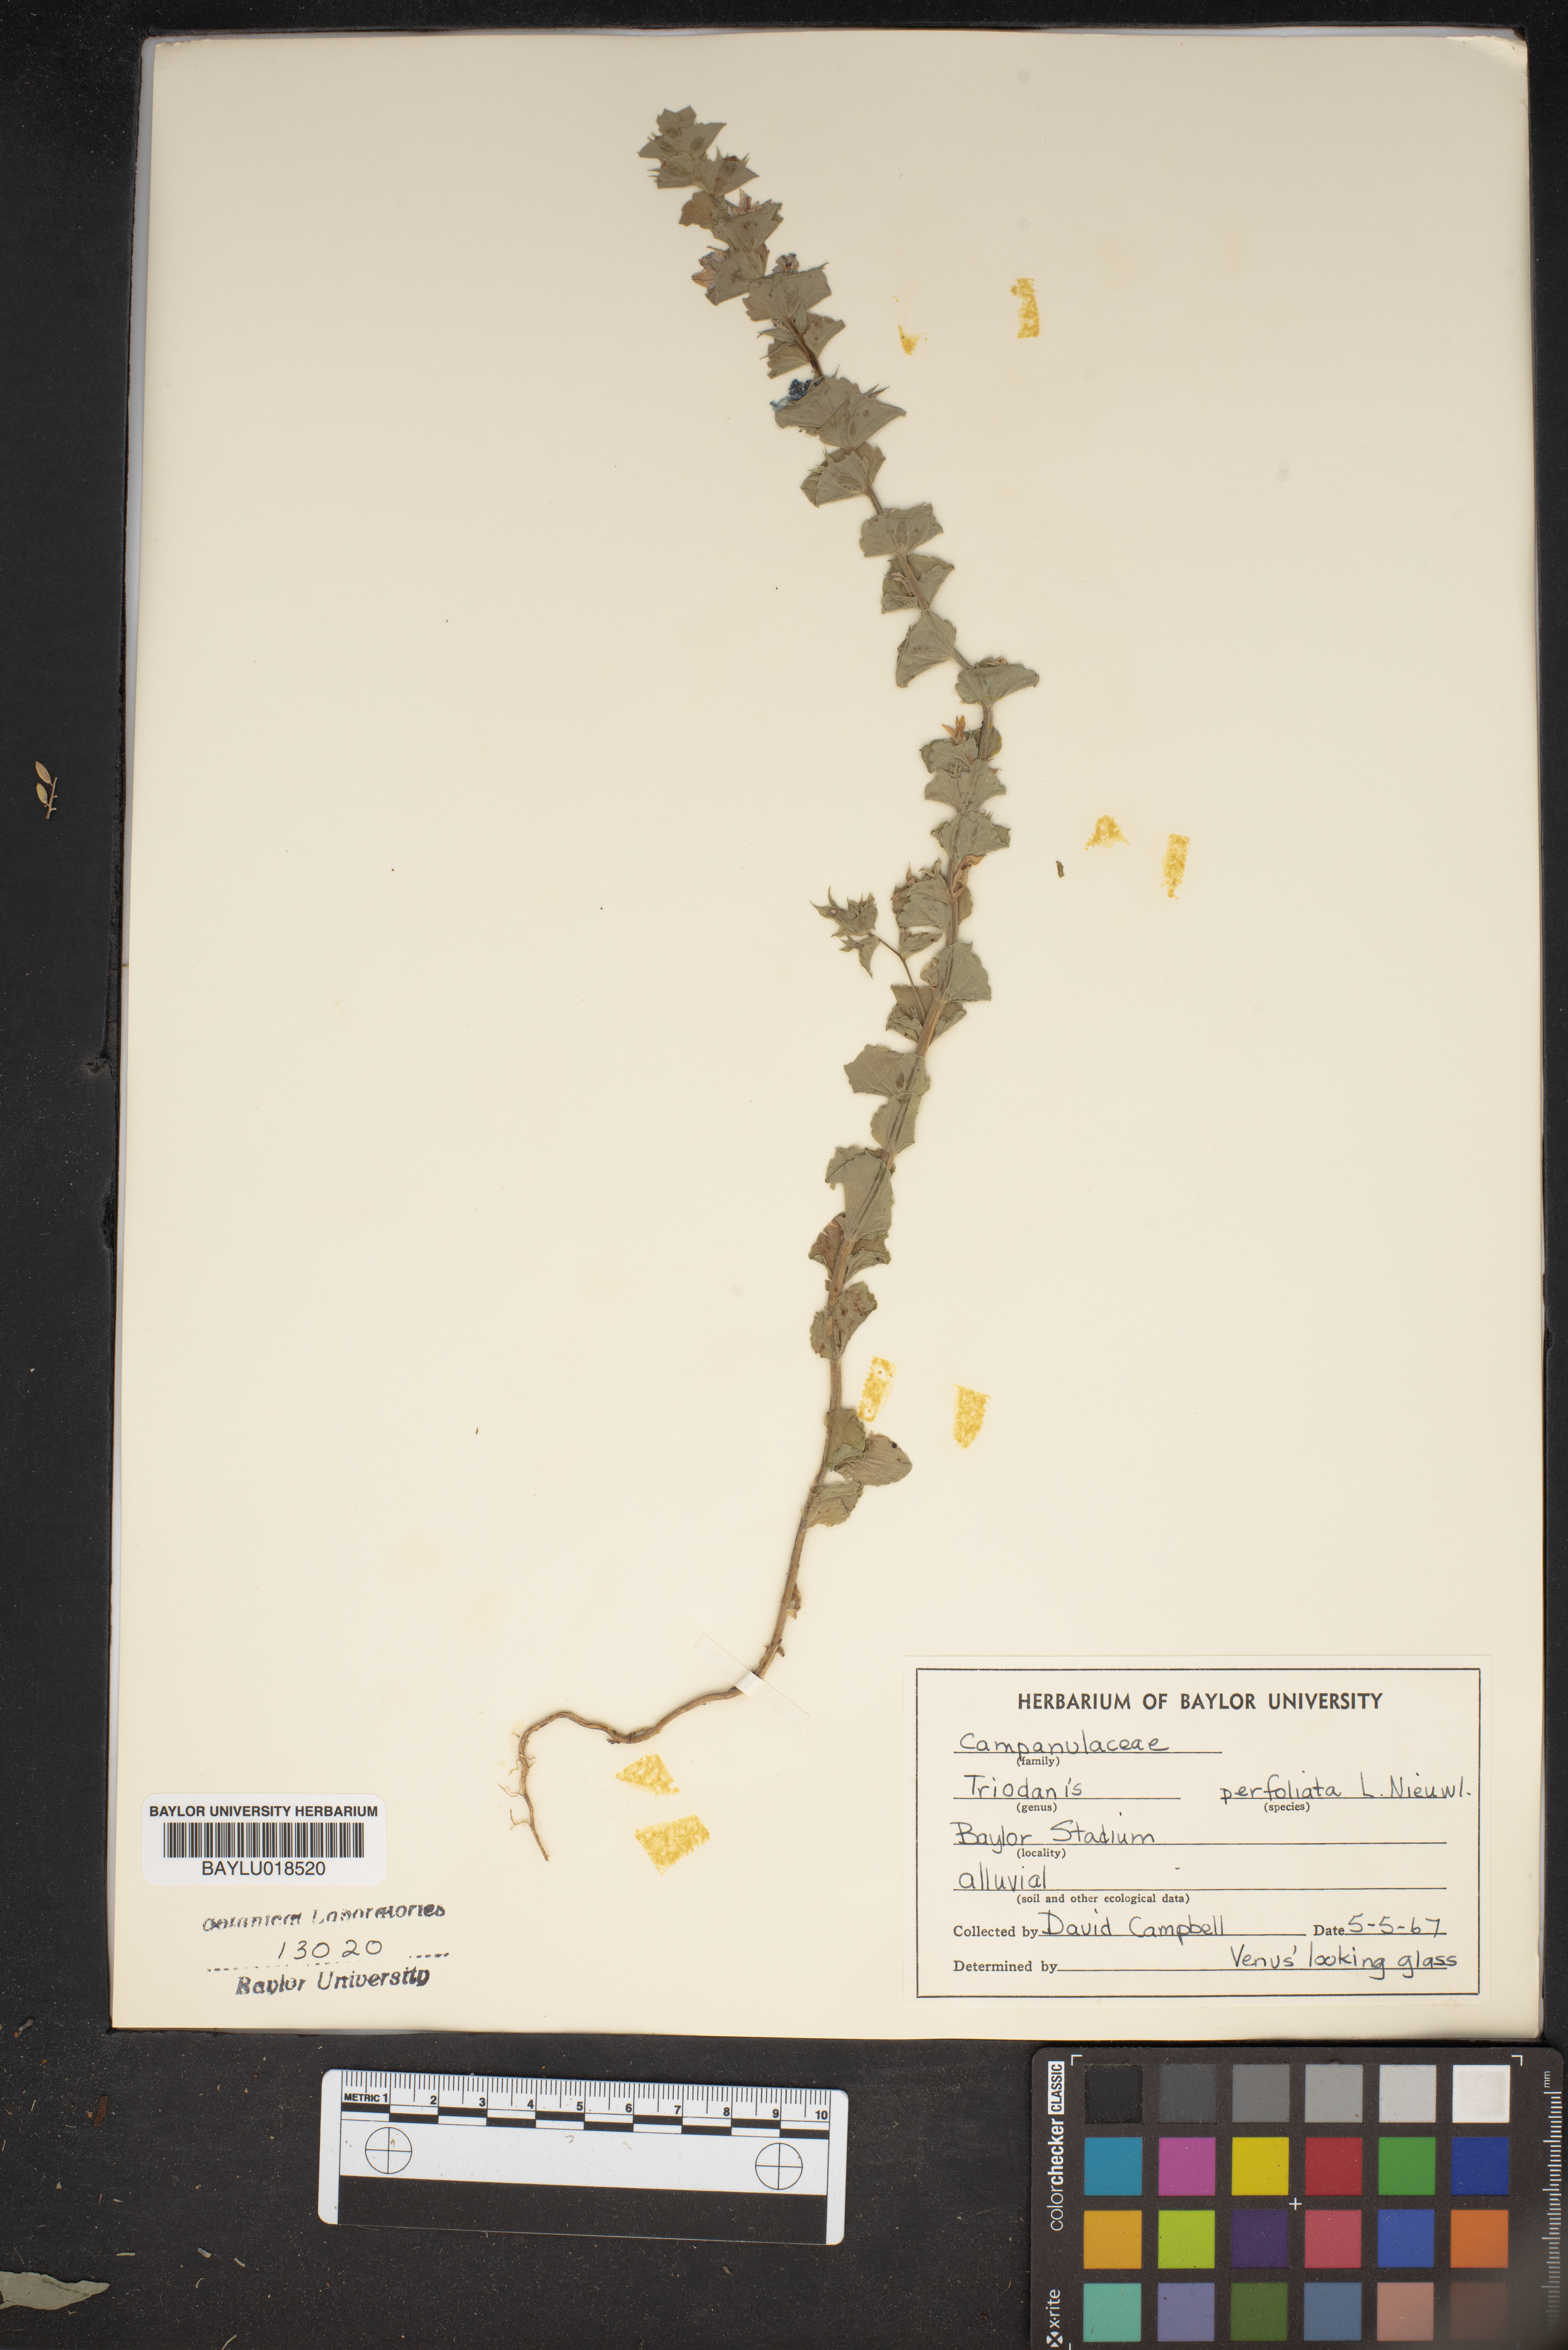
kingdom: Plantae
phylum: Tracheophyta
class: Magnoliopsida
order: Asterales
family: Campanulaceae
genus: Triodanis
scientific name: Triodanis perfoliata
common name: Clasping venus' looking-glass
